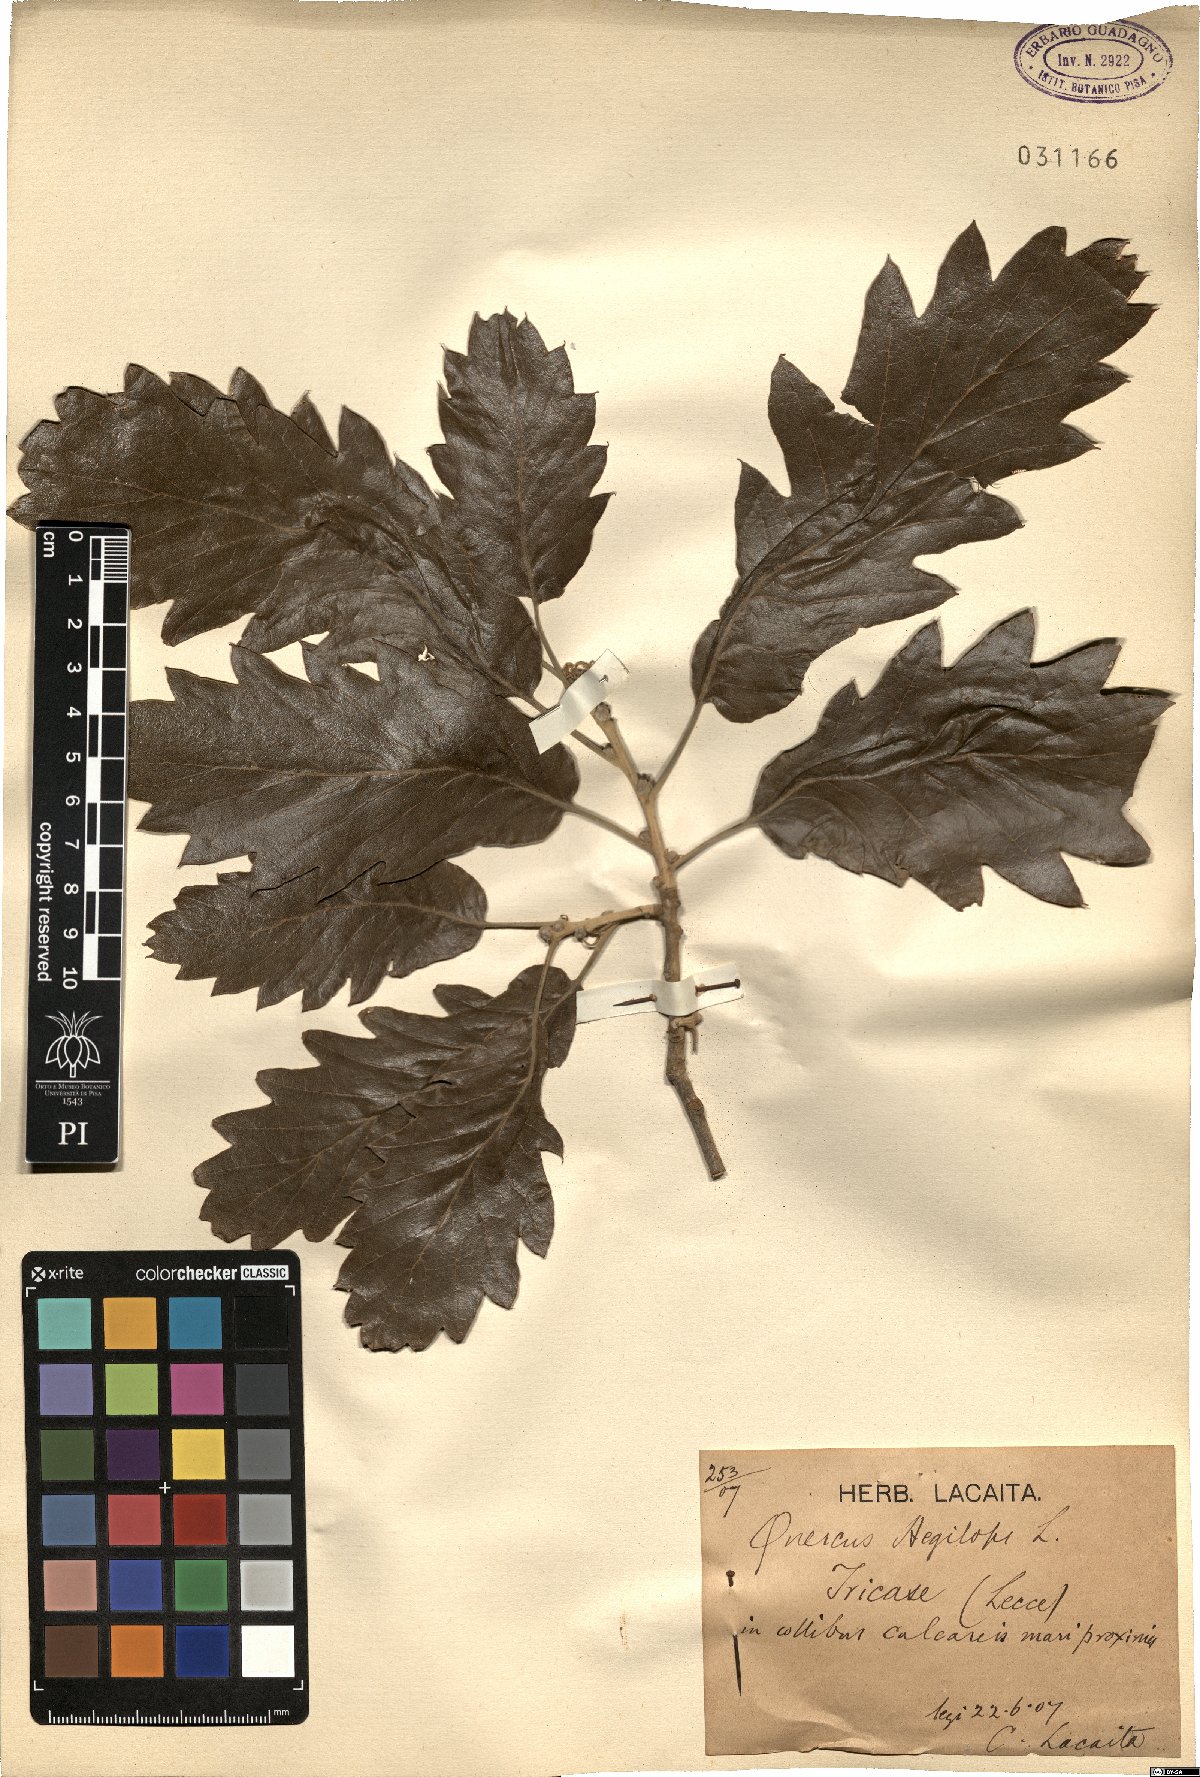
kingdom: Plantae
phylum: Tracheophyta
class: Magnoliopsida
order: Fagales
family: Fagaceae
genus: Quercus
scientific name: Quercus ithaburensis
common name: Tabor oak
